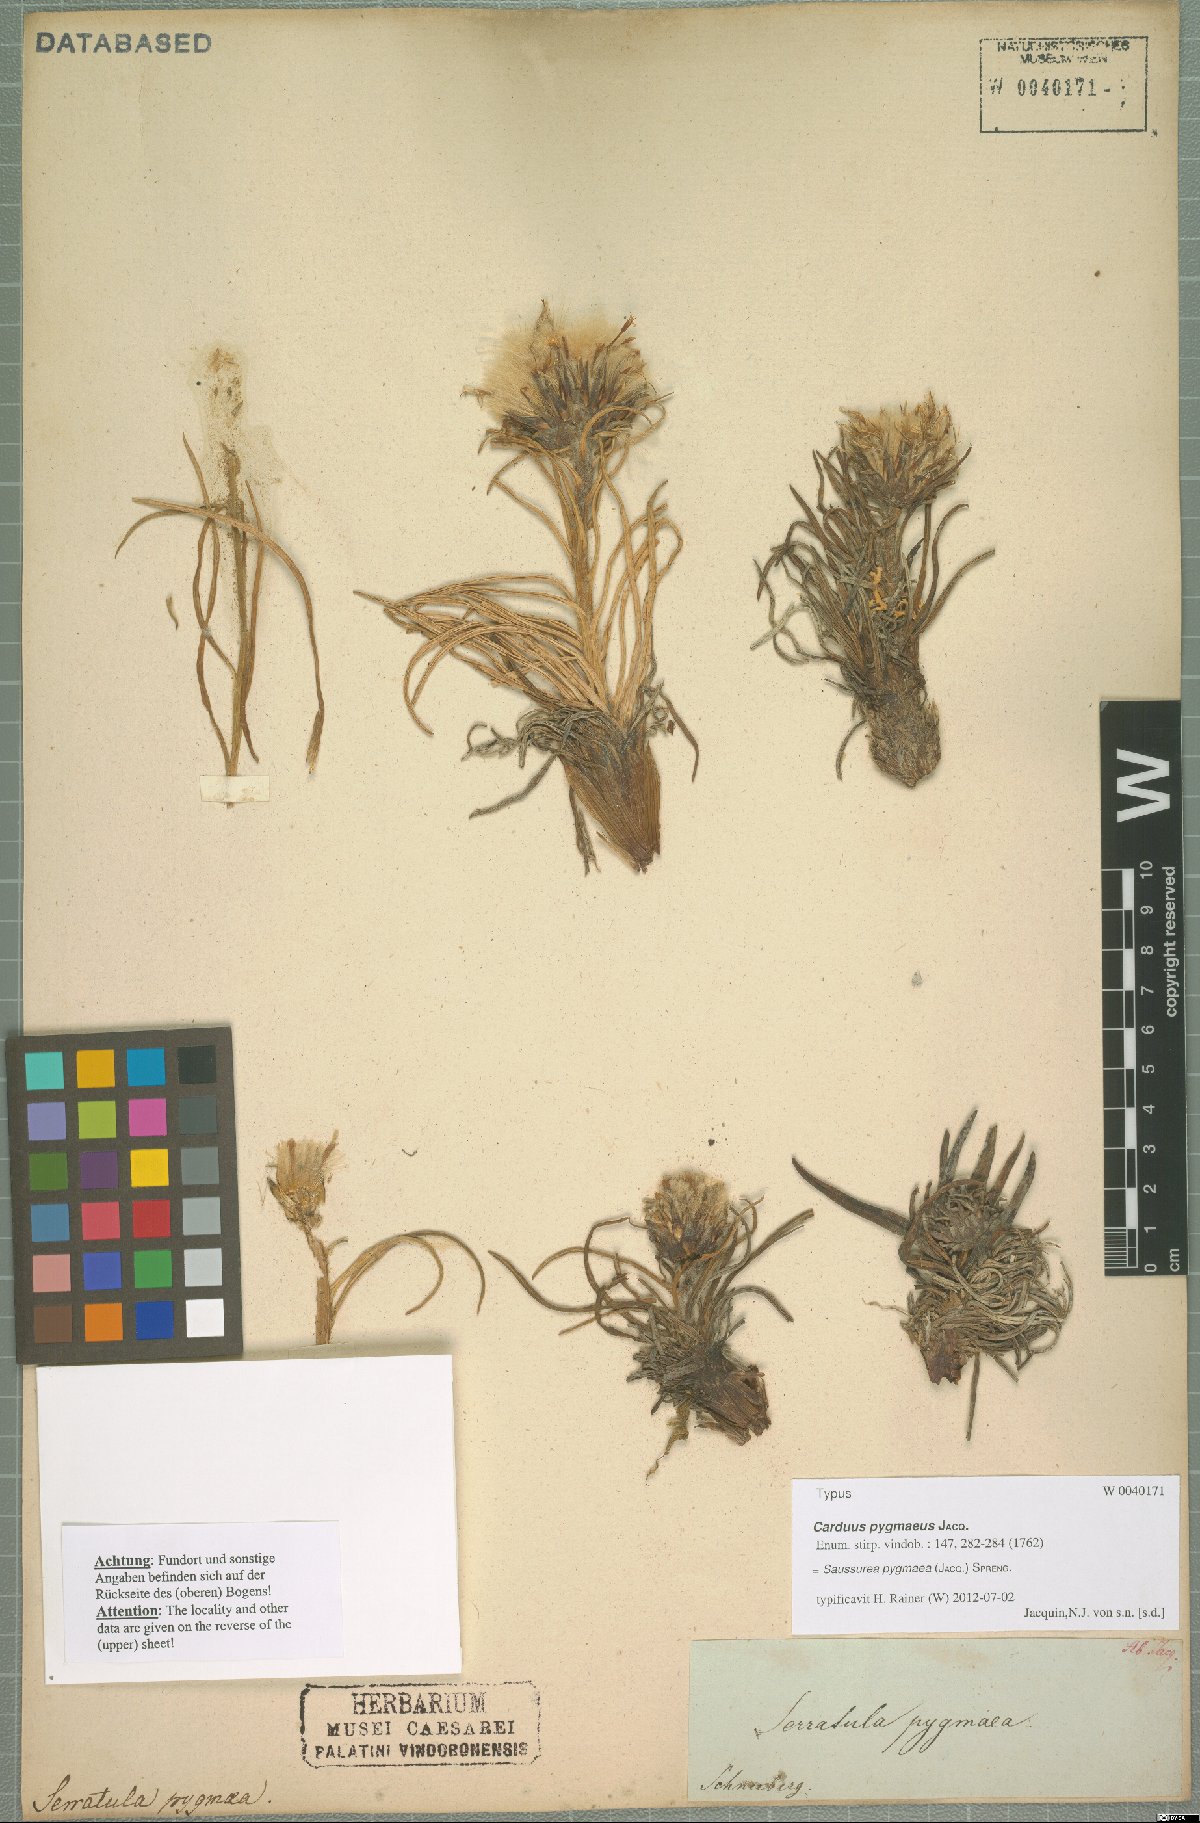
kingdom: Plantae
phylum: Tracheophyta
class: Magnoliopsida
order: Asterales
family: Asteraceae
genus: Saussurea
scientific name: Saussurea pygmaea
